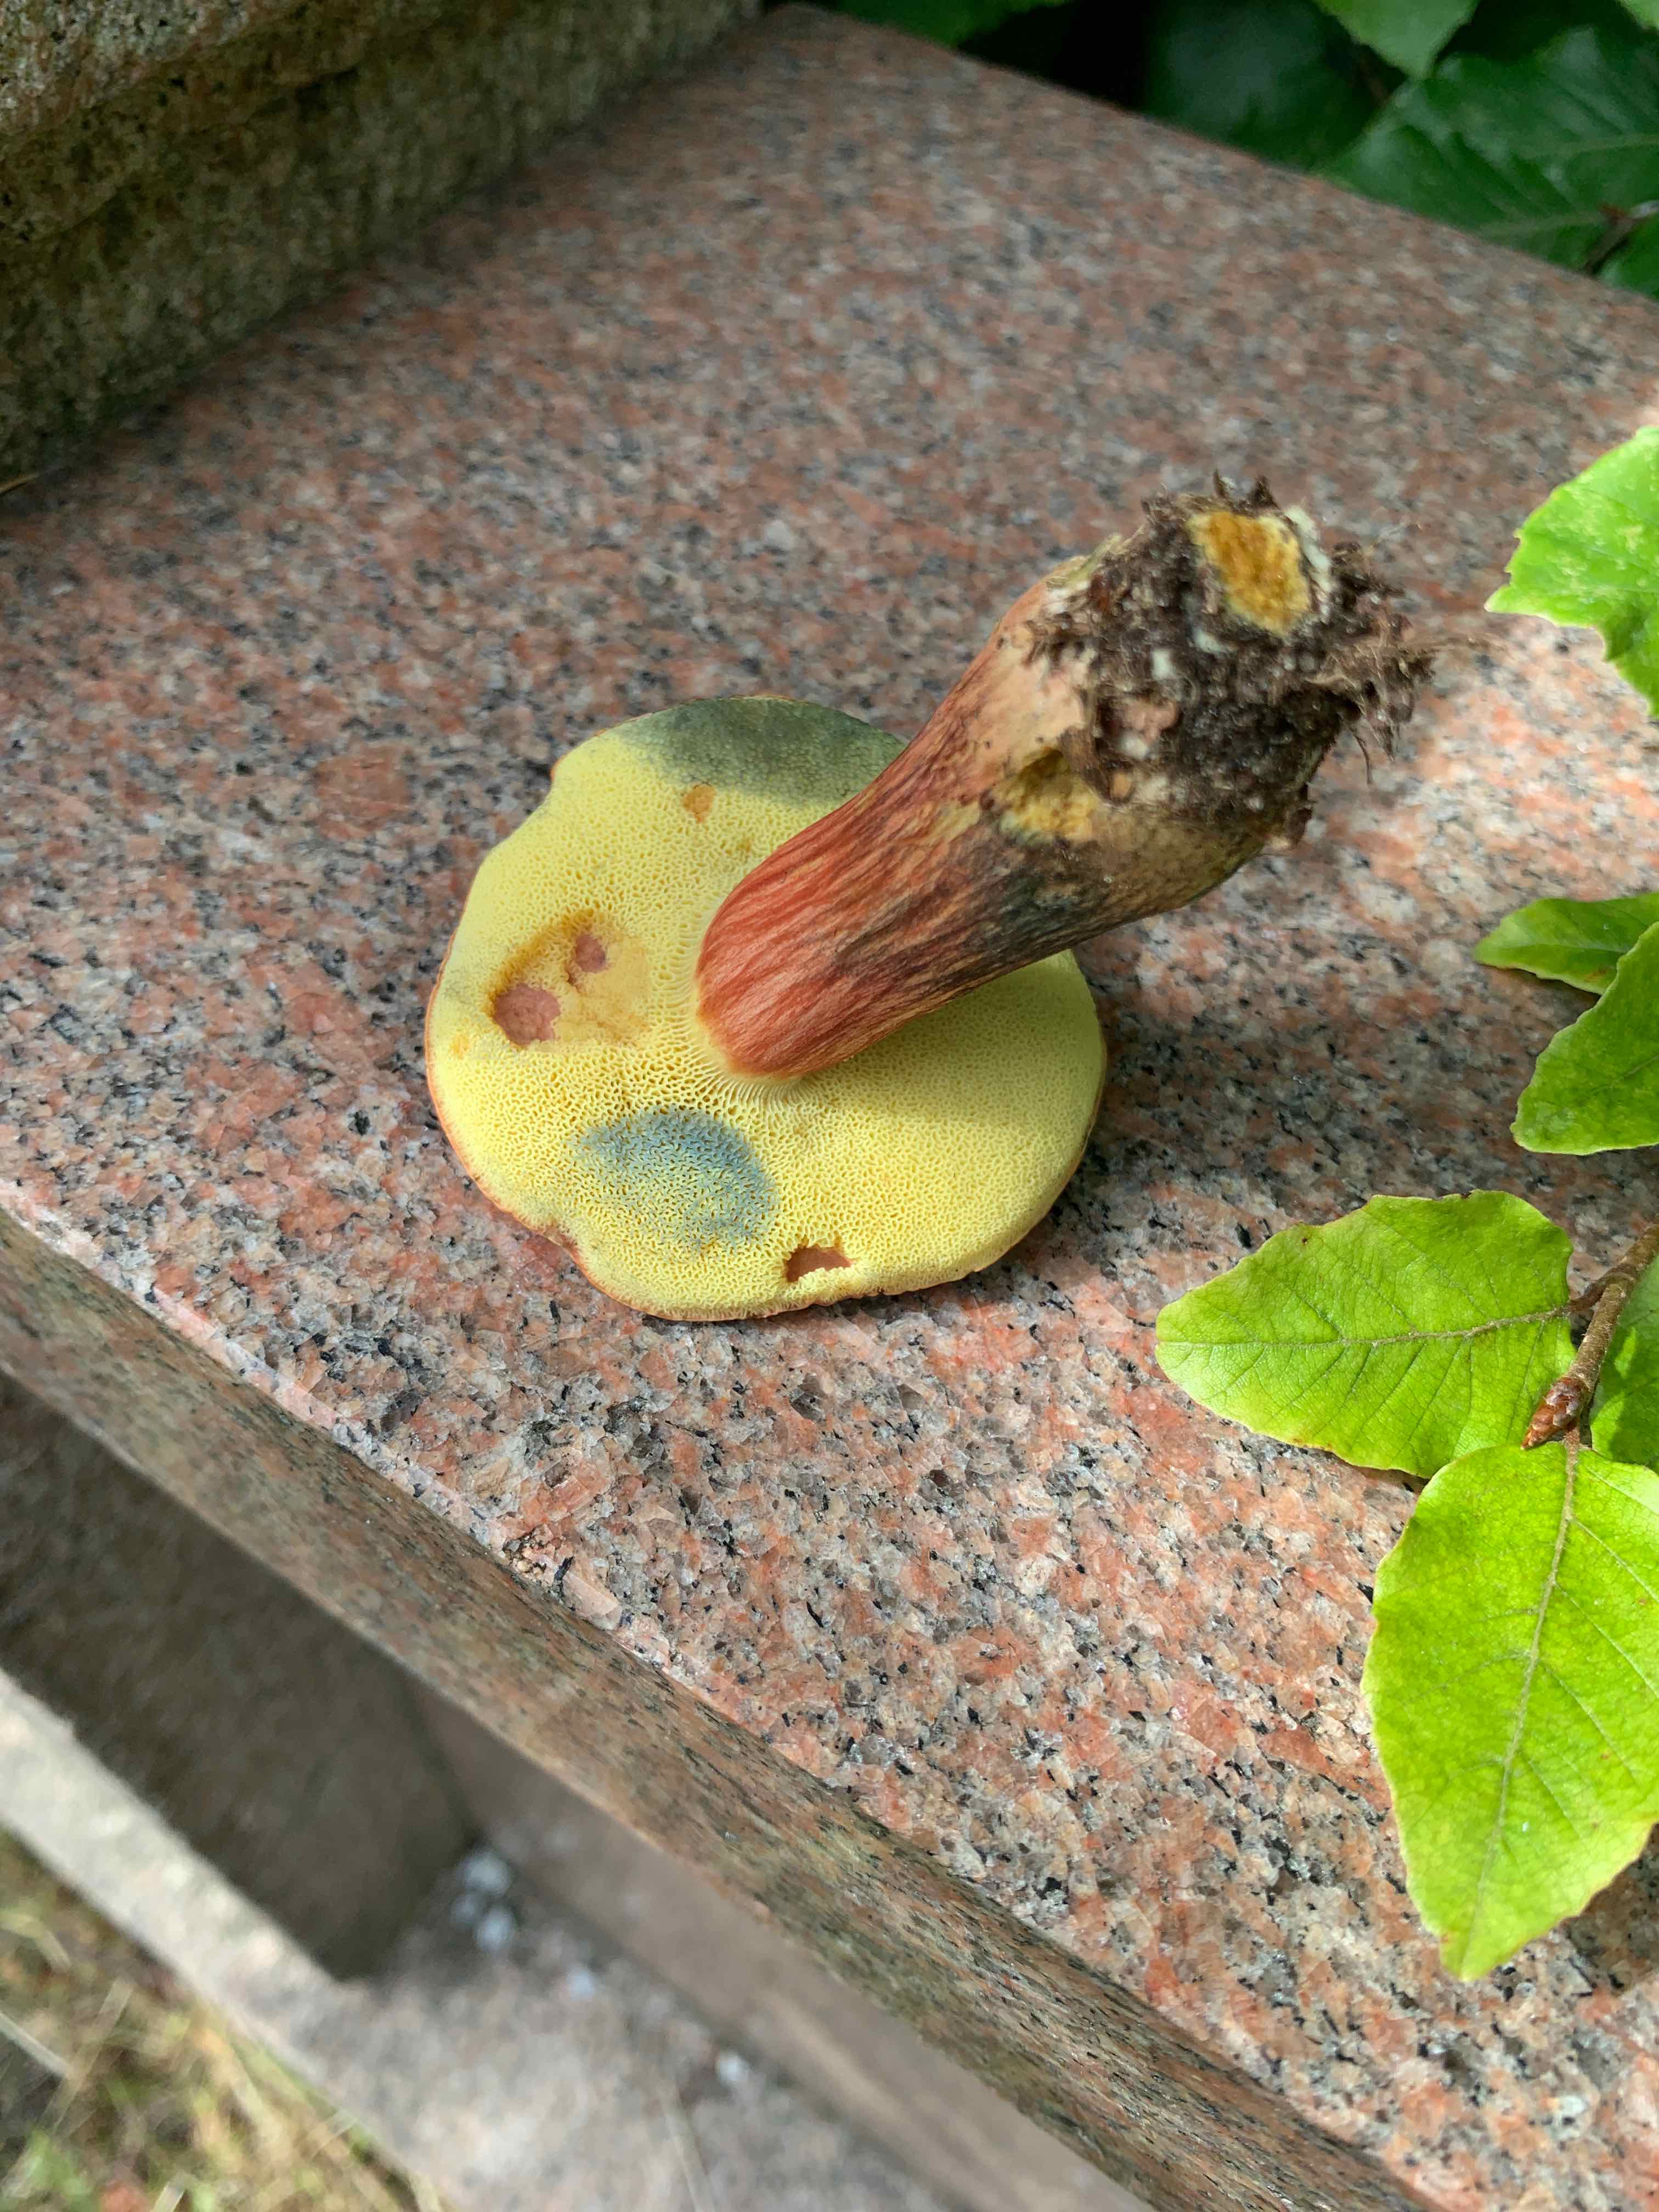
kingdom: Fungi
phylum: Basidiomycota
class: Agaricomycetes
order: Boletales
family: Boletaceae
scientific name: Boletaceae
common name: rørhatfamilien
